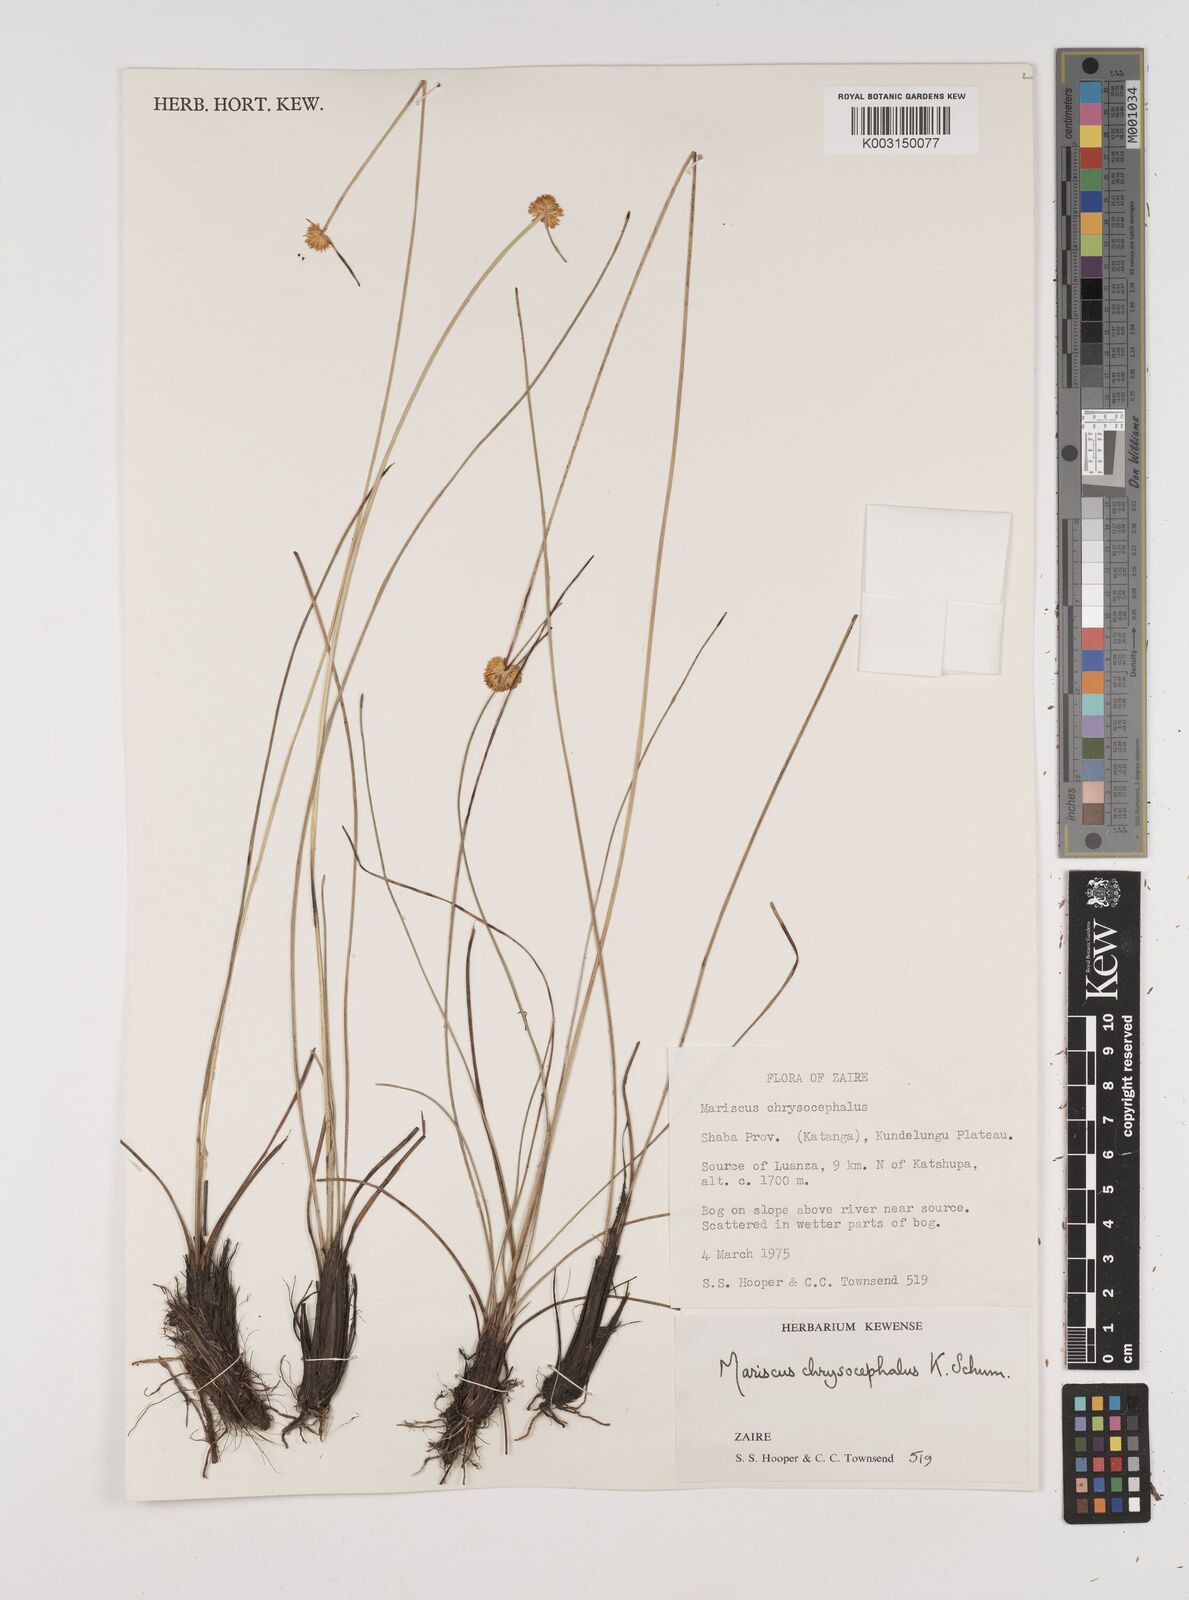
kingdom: Plantae
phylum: Tracheophyta
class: Liliopsida
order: Poales
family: Cyperaceae
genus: Cyperus
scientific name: Cyperus chrysocephalus
